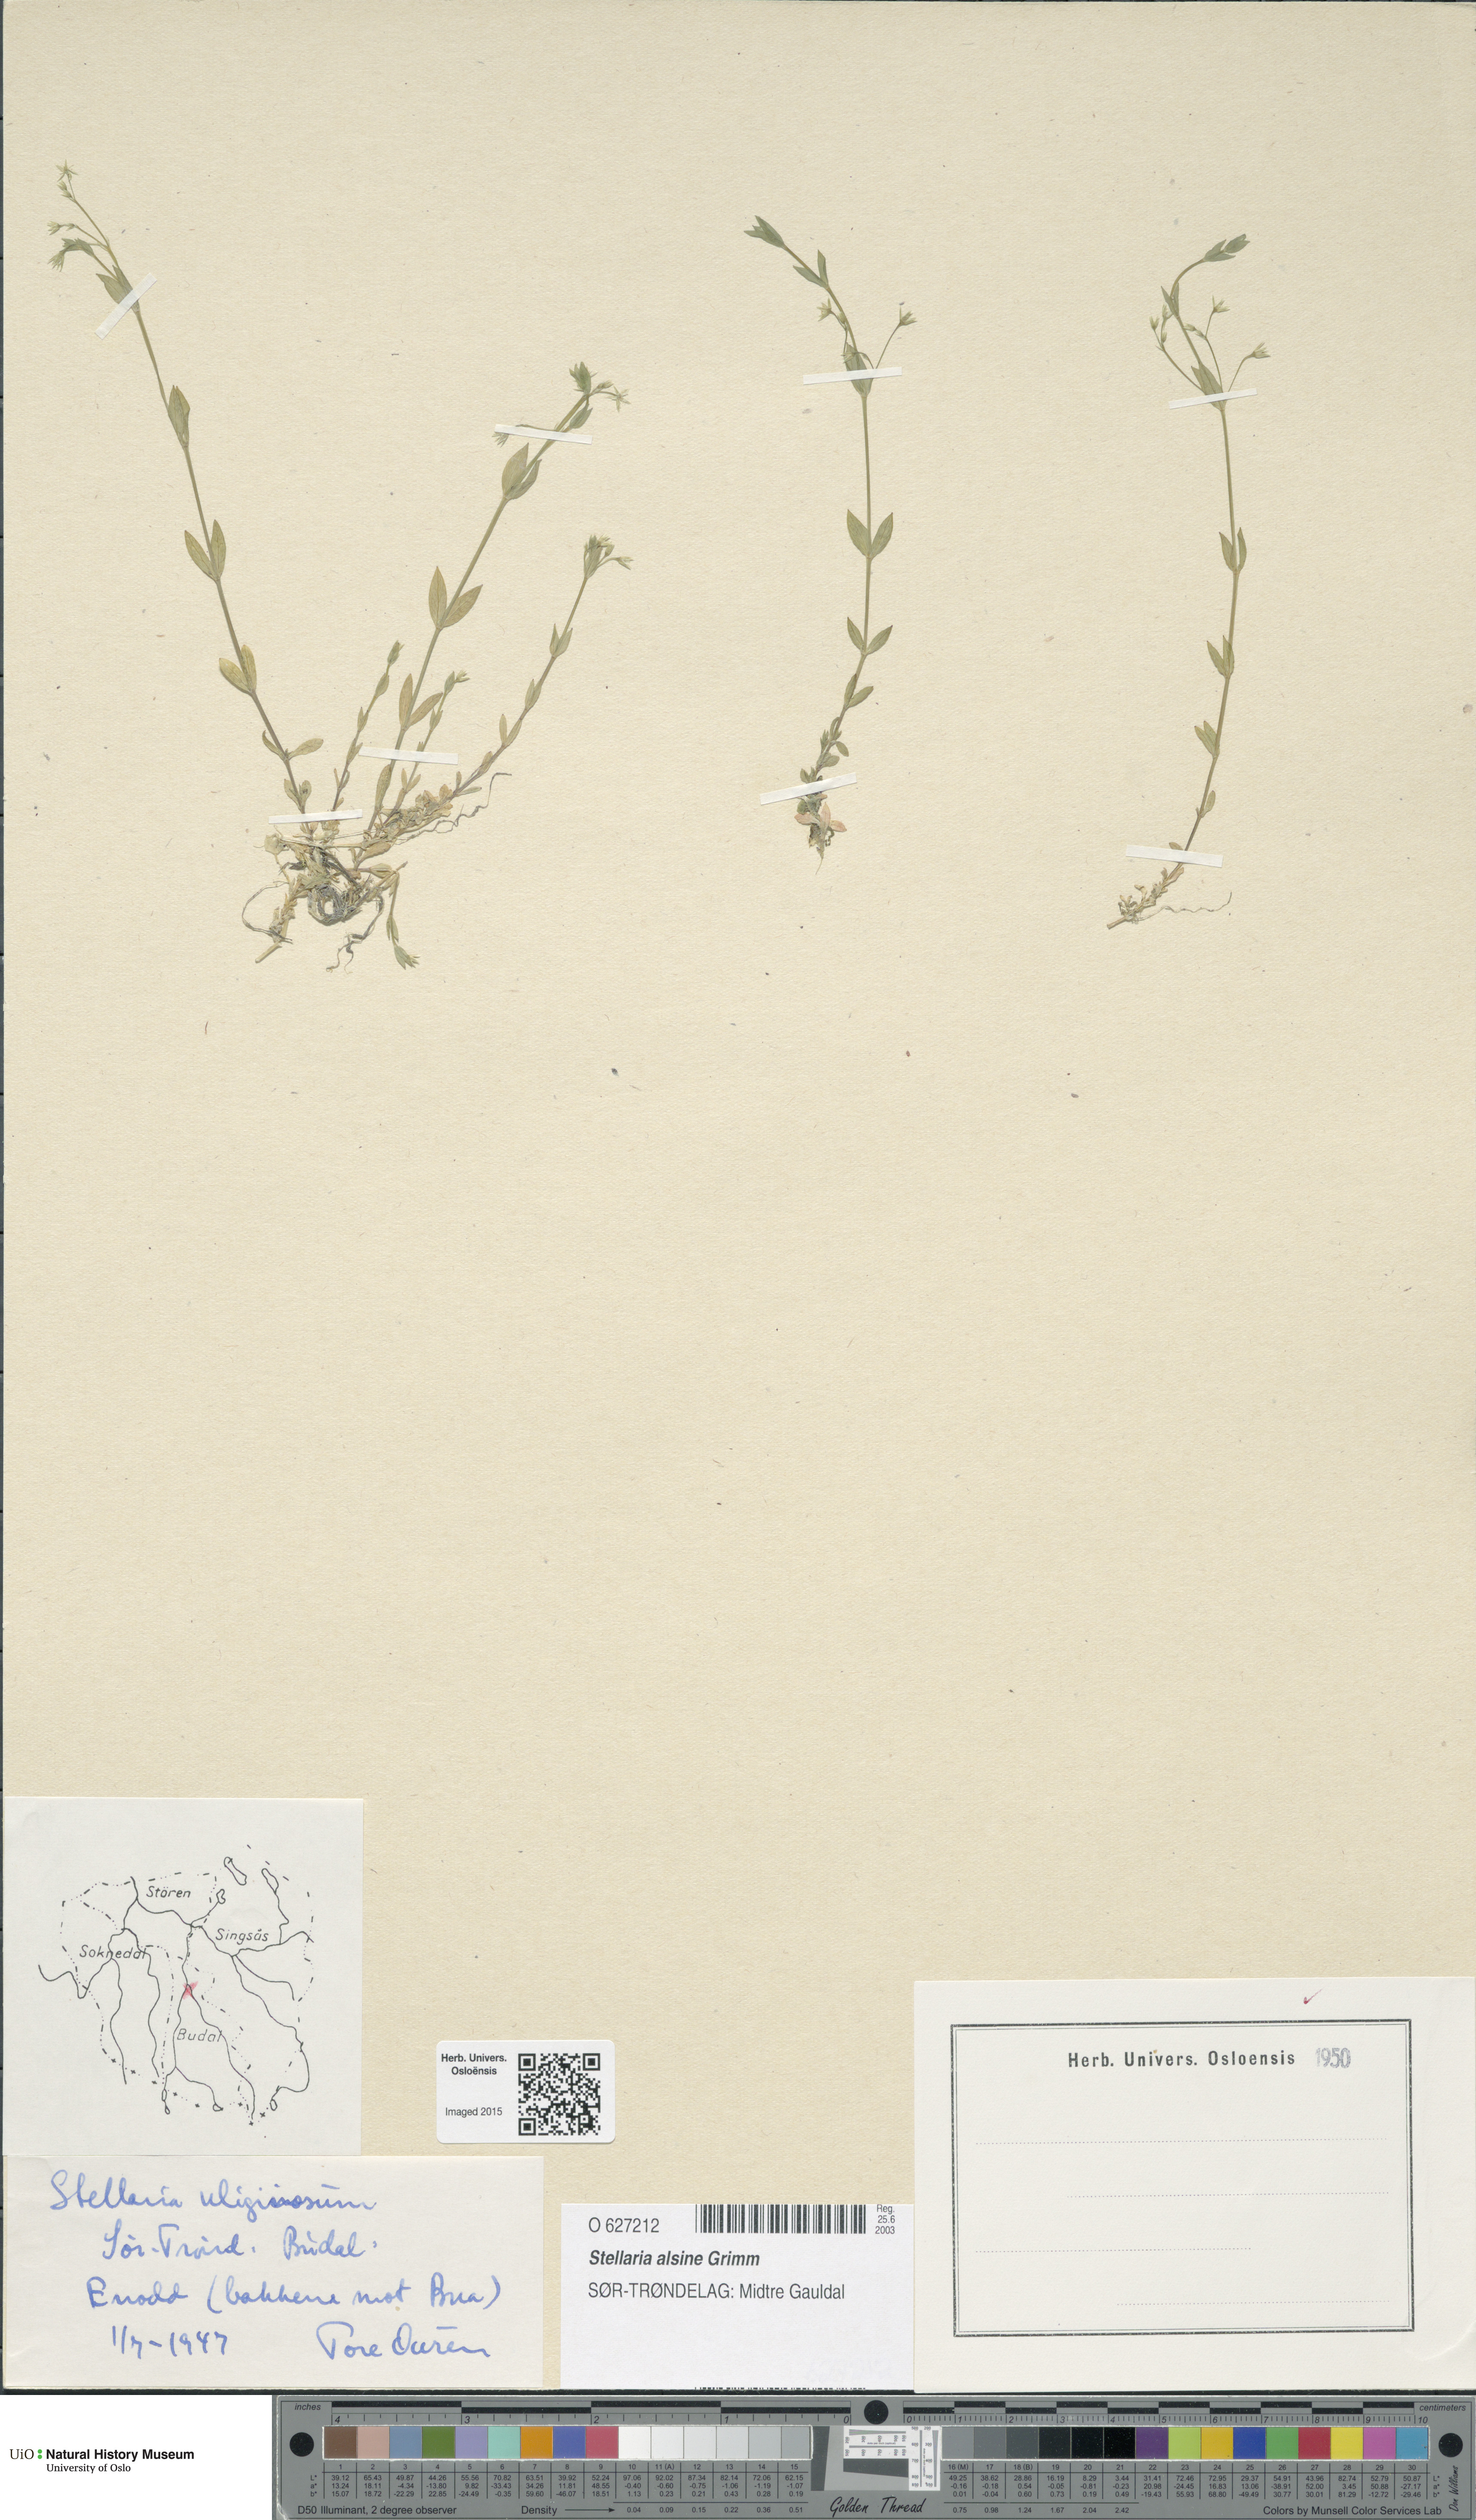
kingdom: Plantae
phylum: Tracheophyta
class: Magnoliopsida
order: Caryophyllales
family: Caryophyllaceae
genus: Stellaria
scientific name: Stellaria alsine
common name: Bog stitchwort
